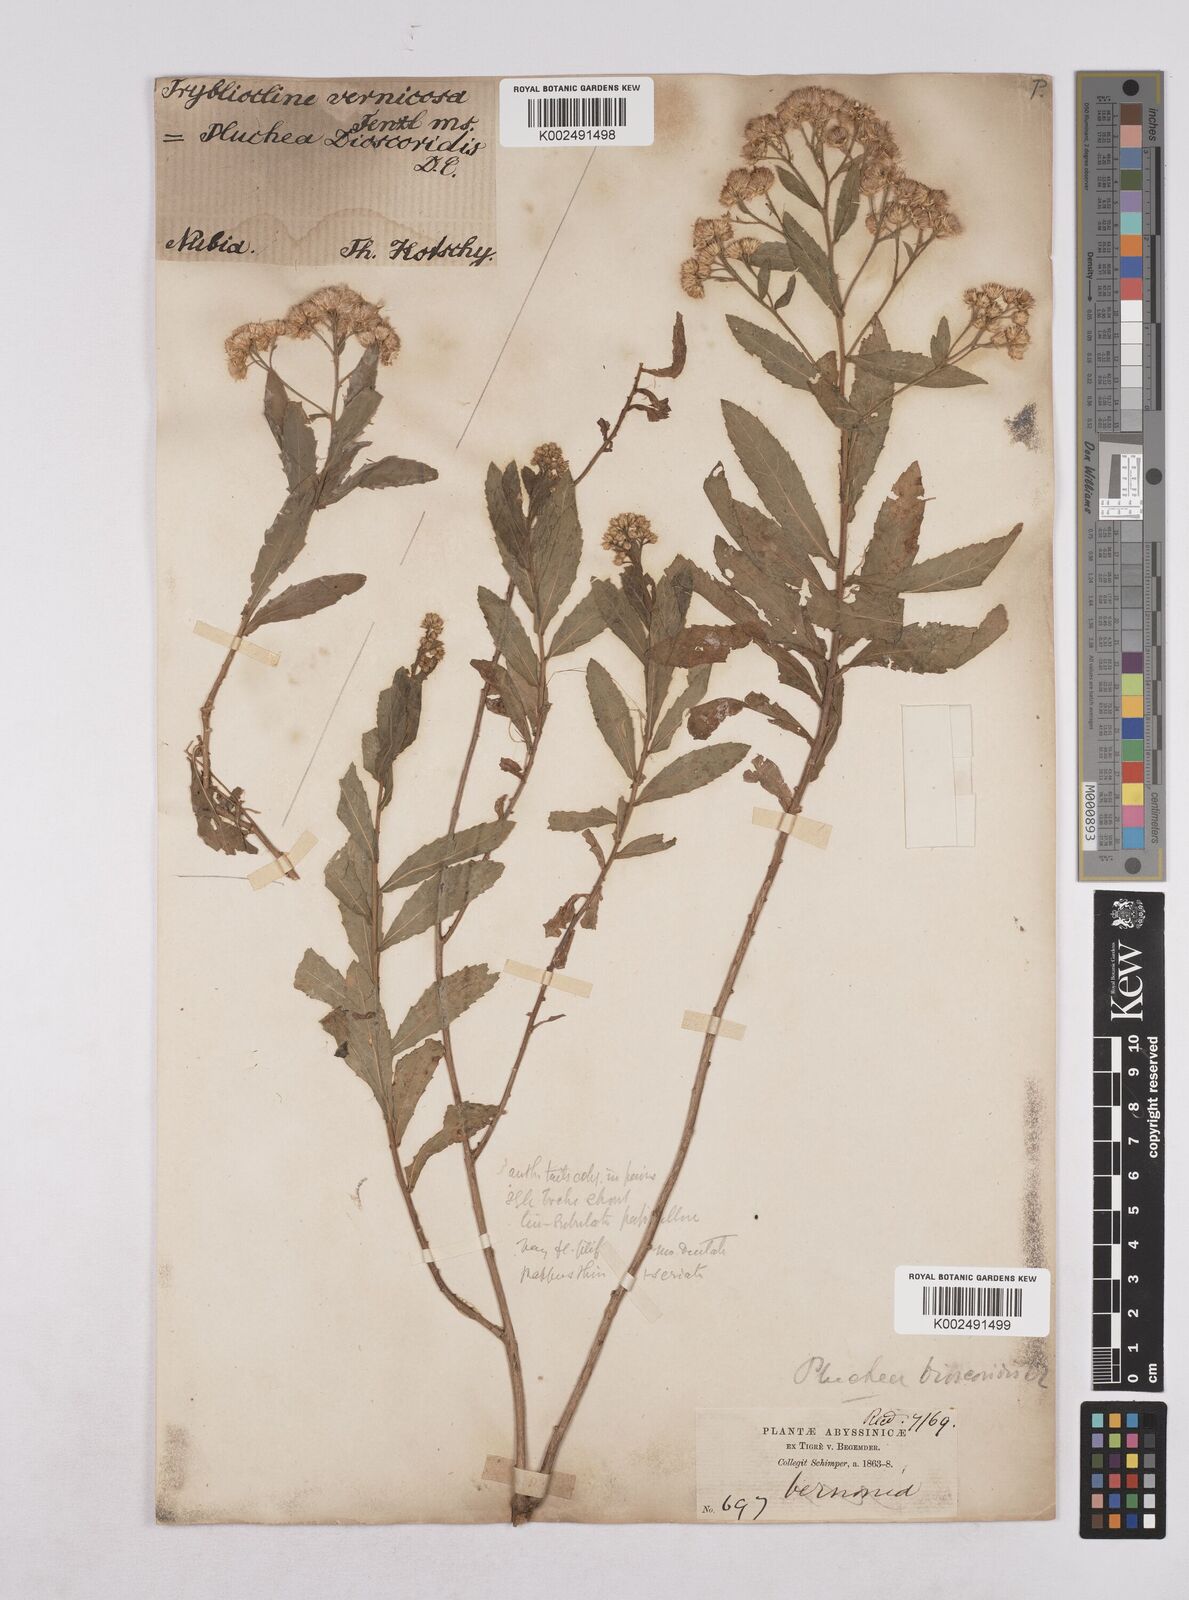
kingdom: Plantae
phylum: Tracheophyta
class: Magnoliopsida
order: Asterales
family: Asteraceae
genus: Pluchea
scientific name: Pluchea dioscoridis
